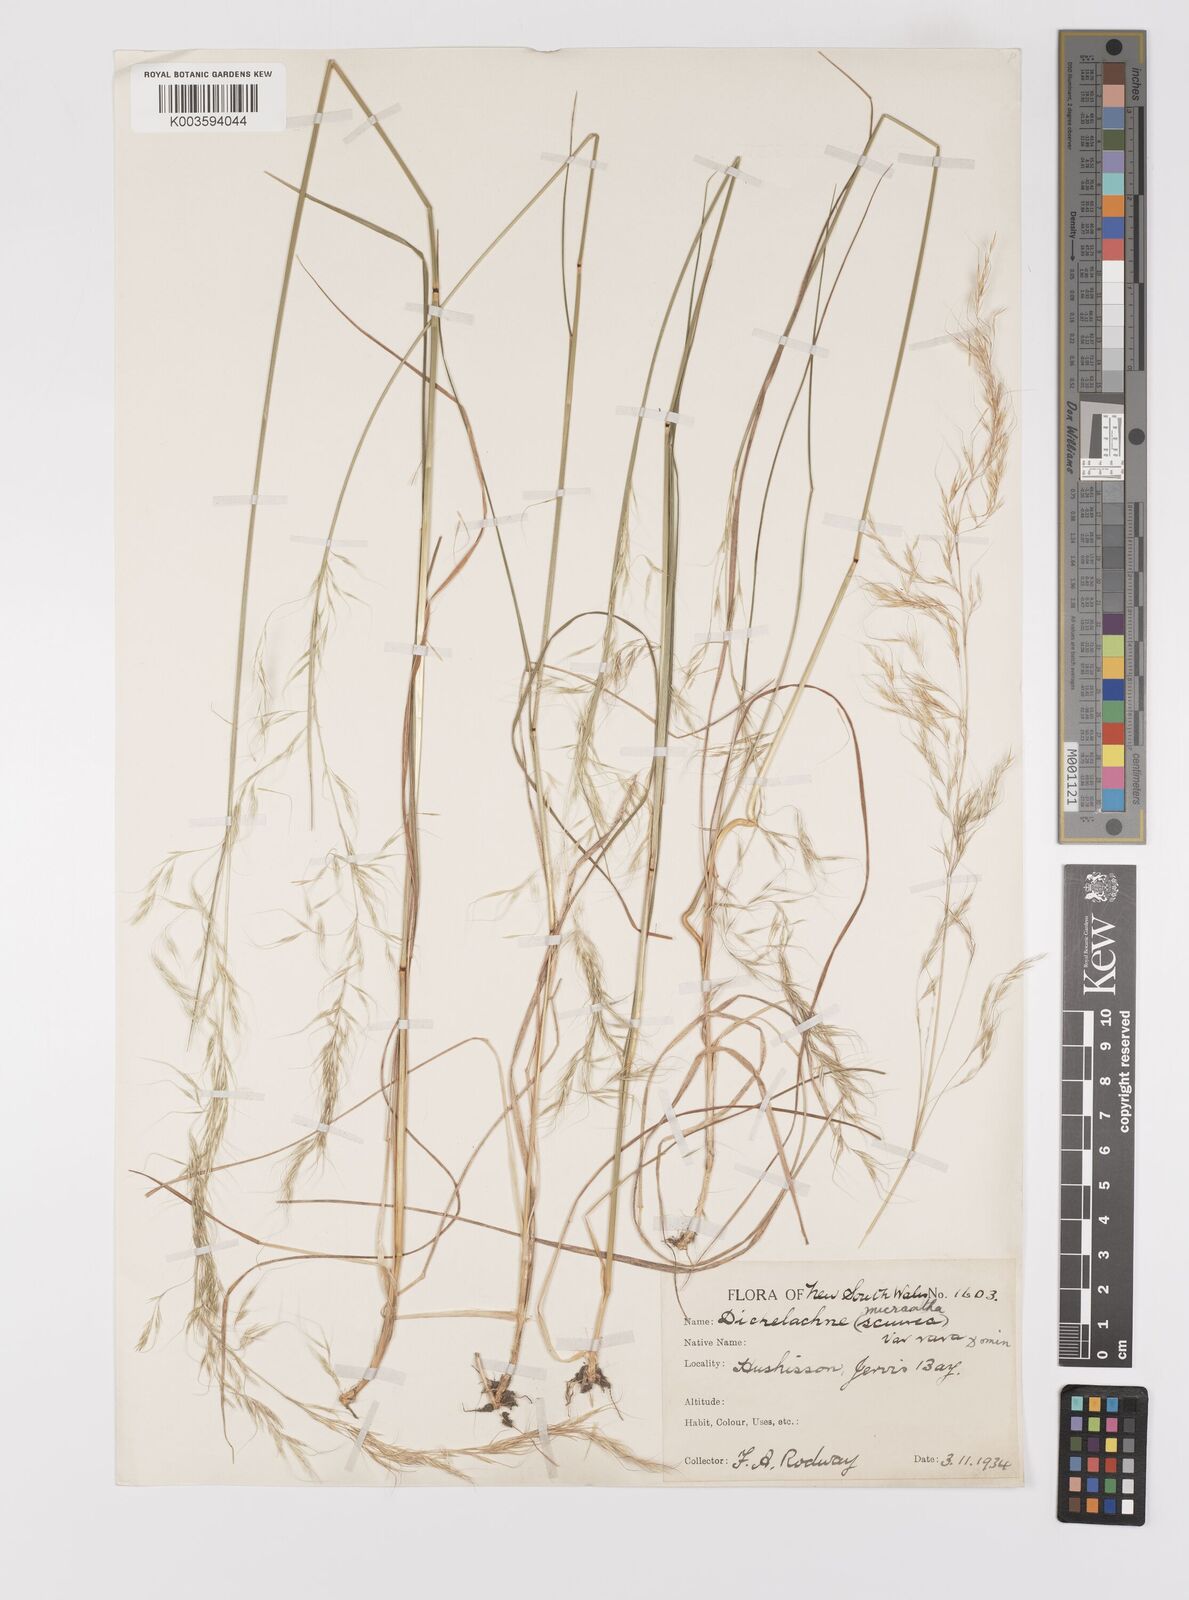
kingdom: Plantae
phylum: Tracheophyta
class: Liliopsida
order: Poales
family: Poaceae
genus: Dichelachne
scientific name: Dichelachne rara
